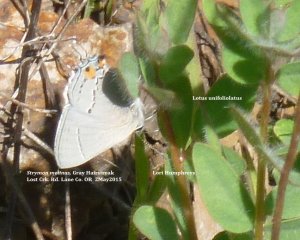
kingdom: Animalia
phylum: Arthropoda
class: Insecta
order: Lepidoptera
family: Lycaenidae
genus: Strymon
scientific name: Strymon melinus
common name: Gray Hairstreak
